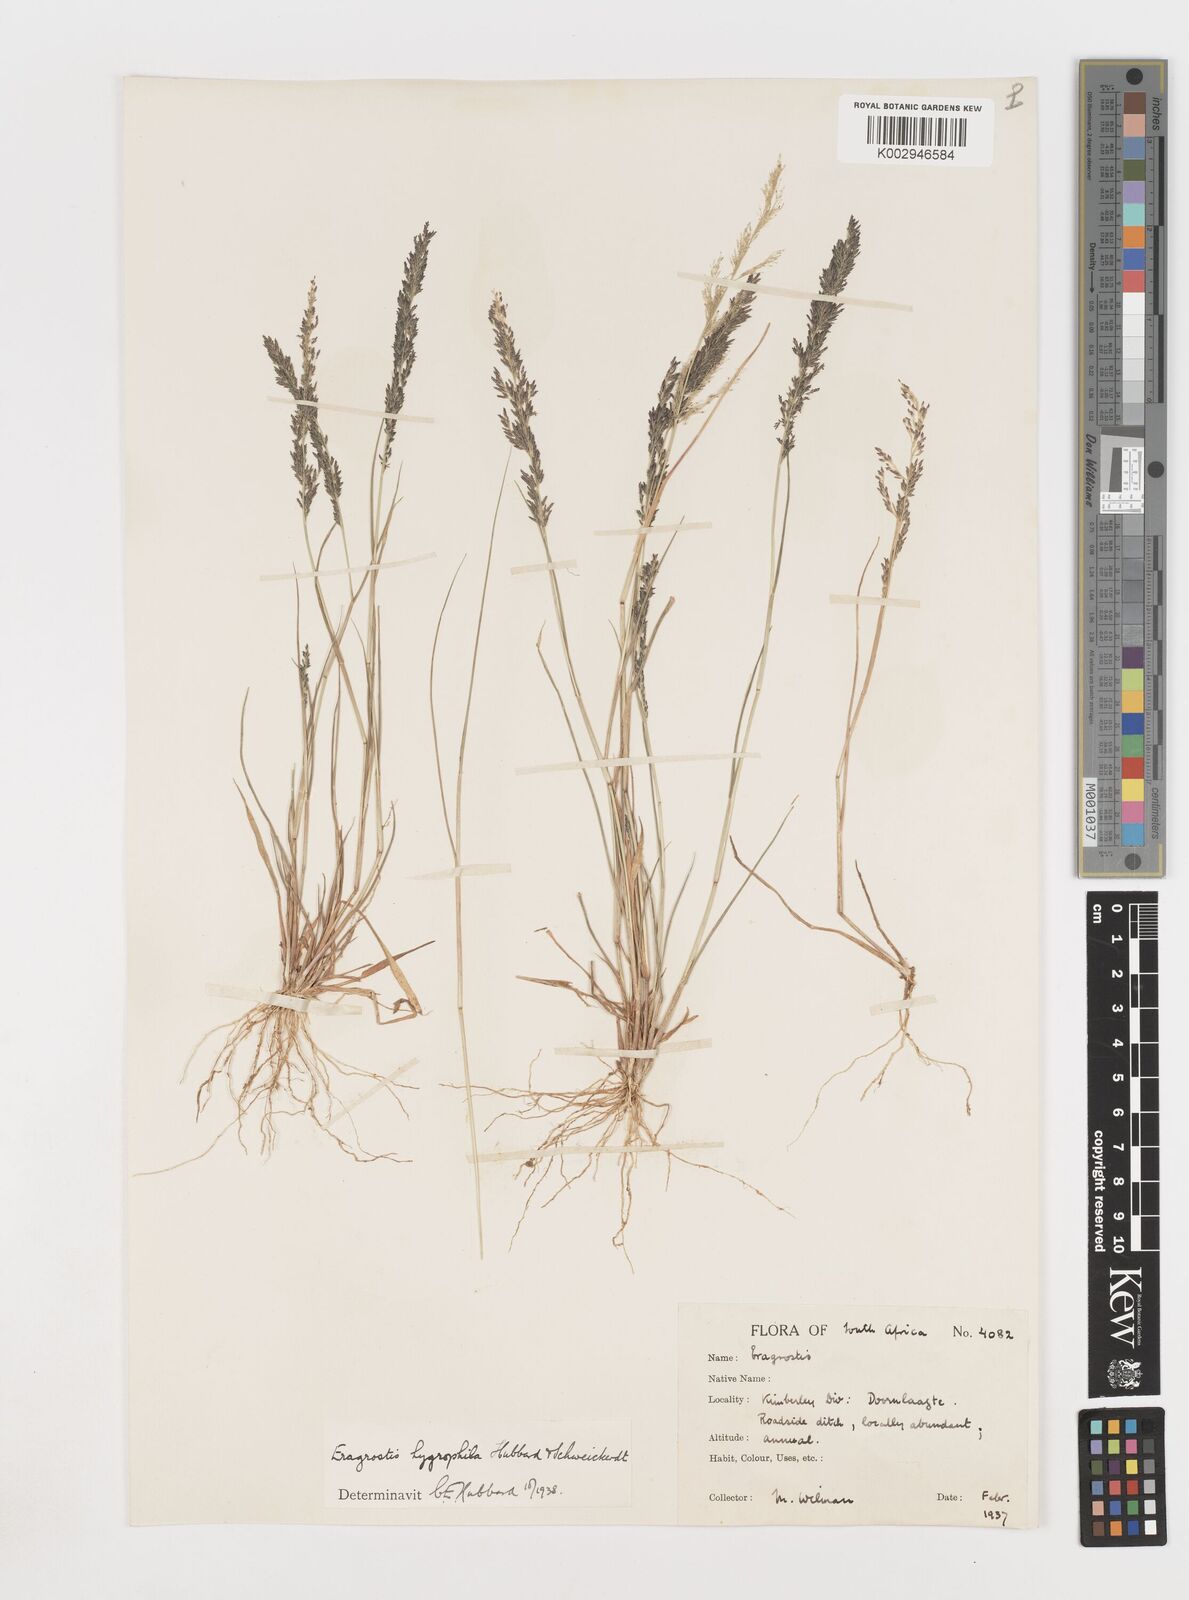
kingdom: Plantae
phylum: Tracheophyta
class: Liliopsida
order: Poales
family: Poaceae
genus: Eragrostis
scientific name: Eragrostis homomalla
